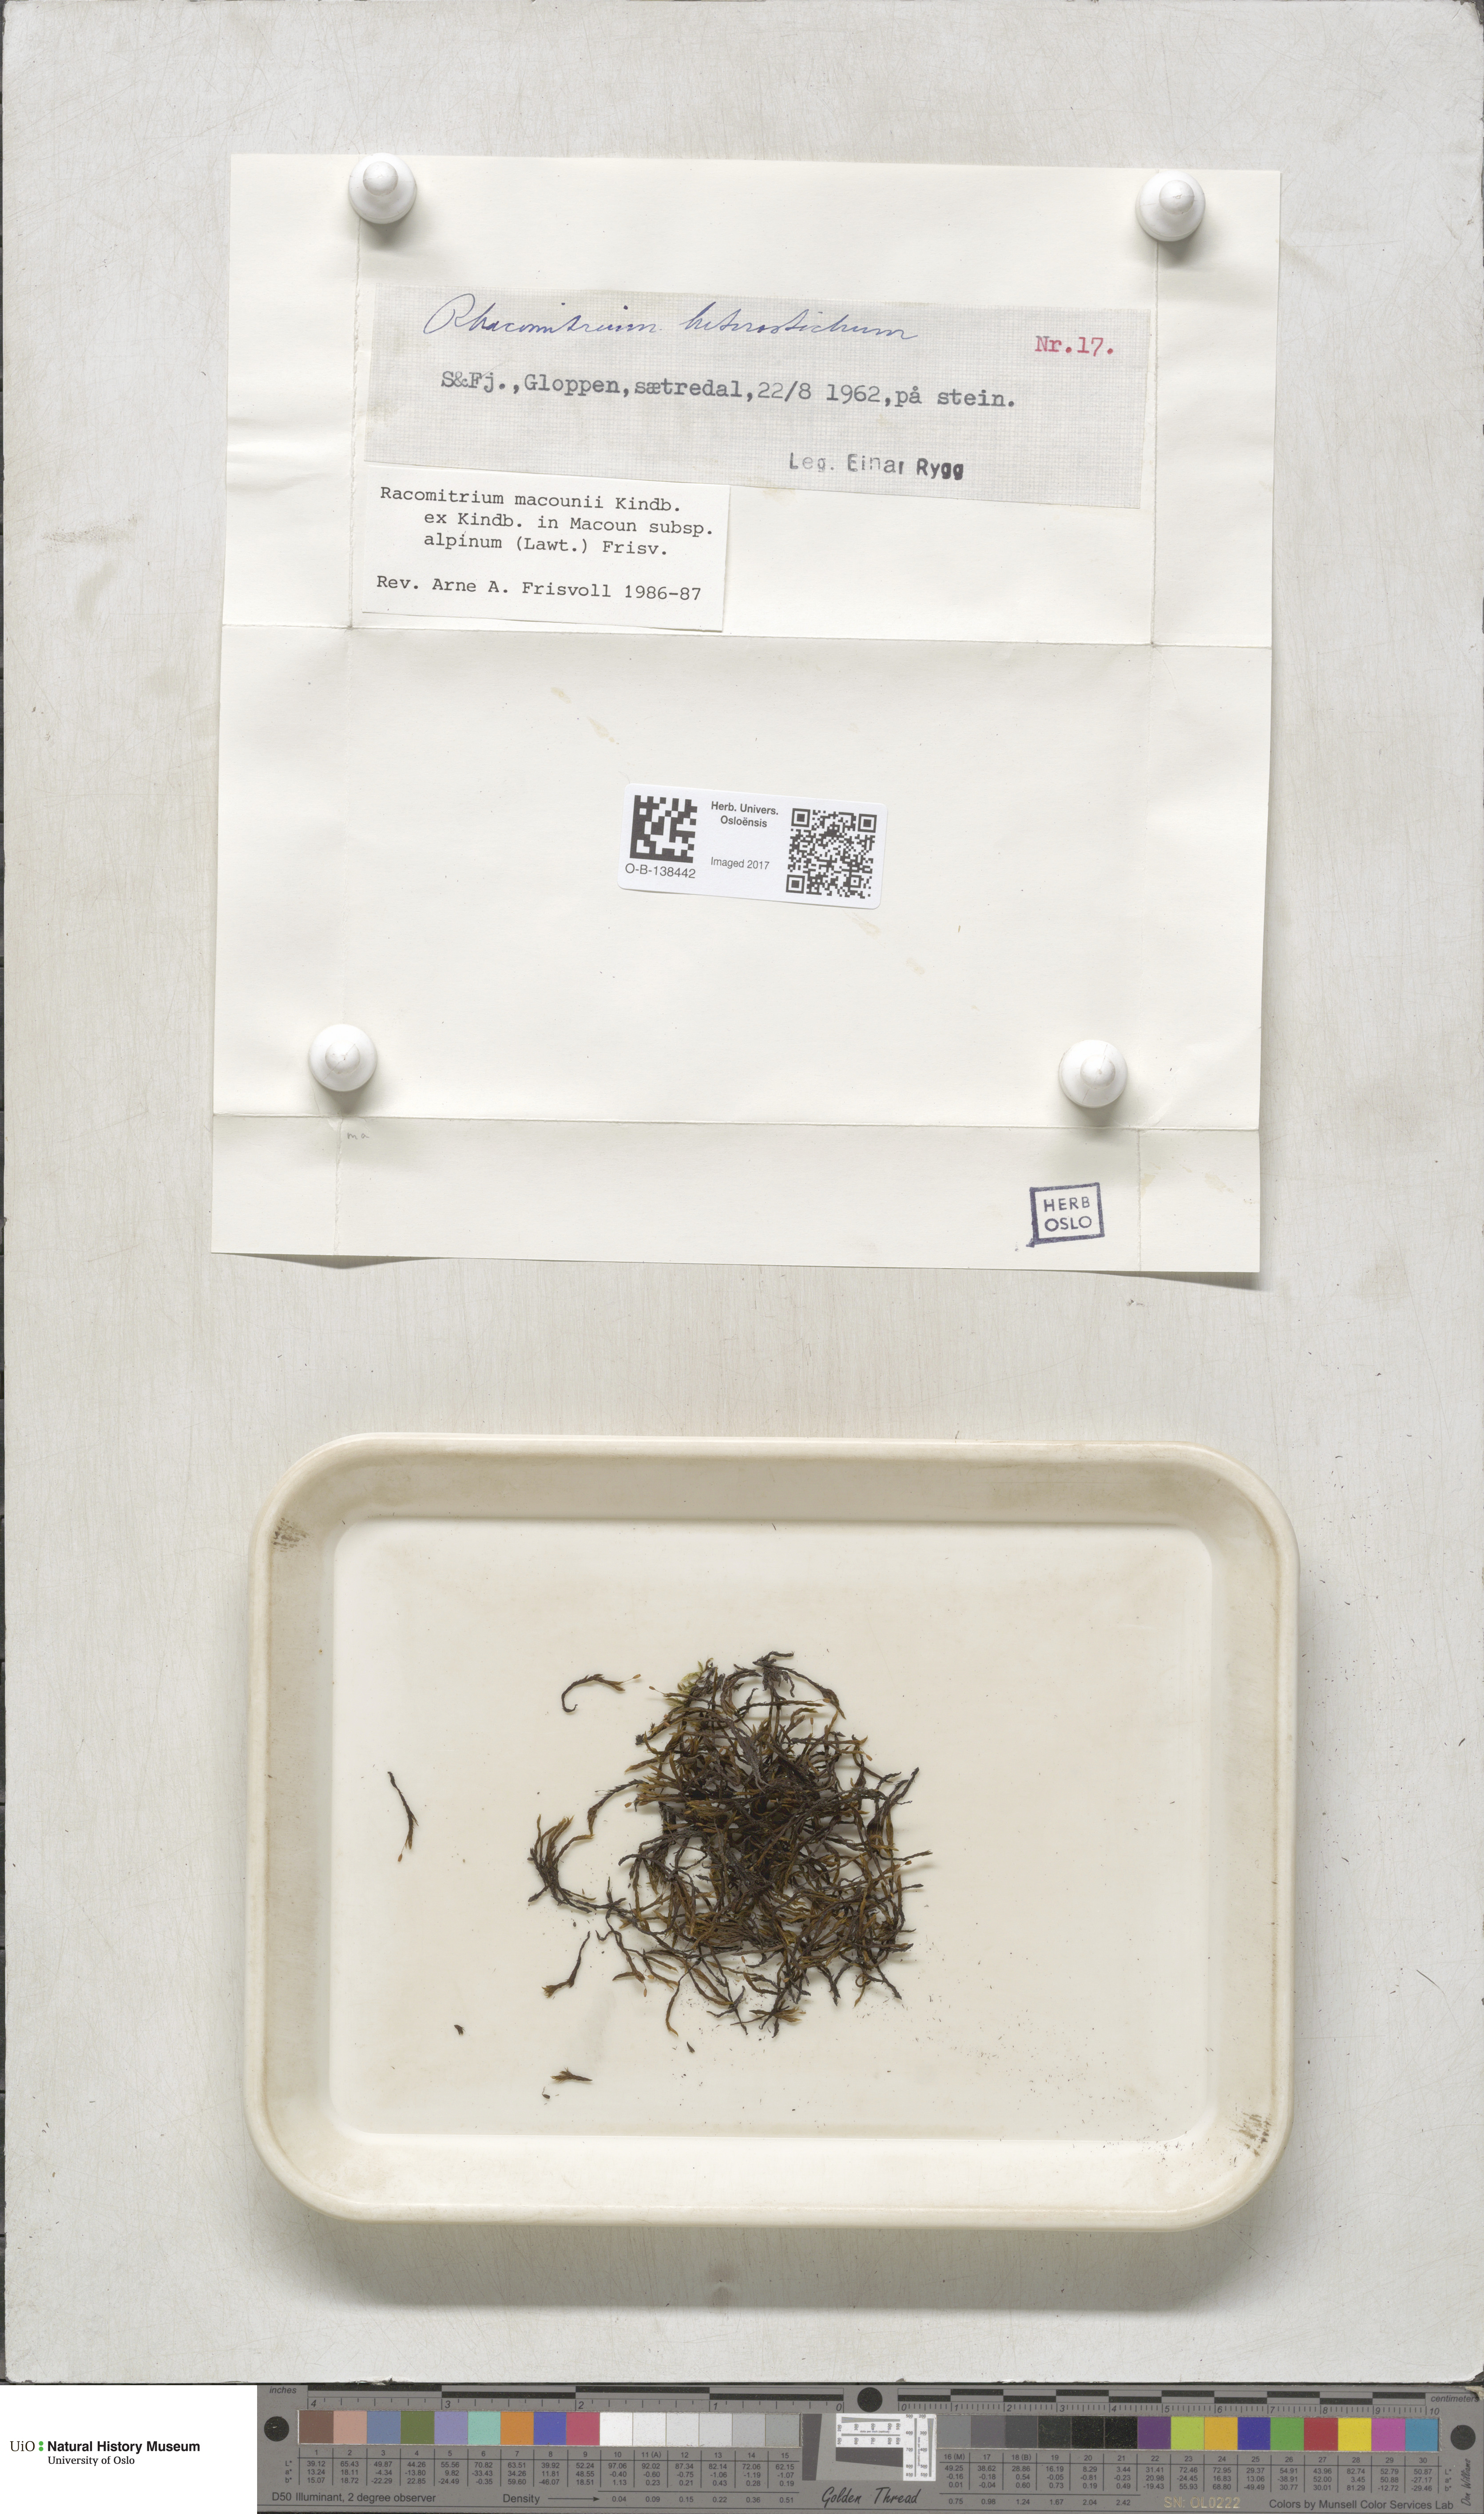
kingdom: Plantae
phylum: Bryophyta
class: Bryopsida
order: Grimmiales
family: Grimmiaceae
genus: Bucklandiella
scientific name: Bucklandiella macounii
